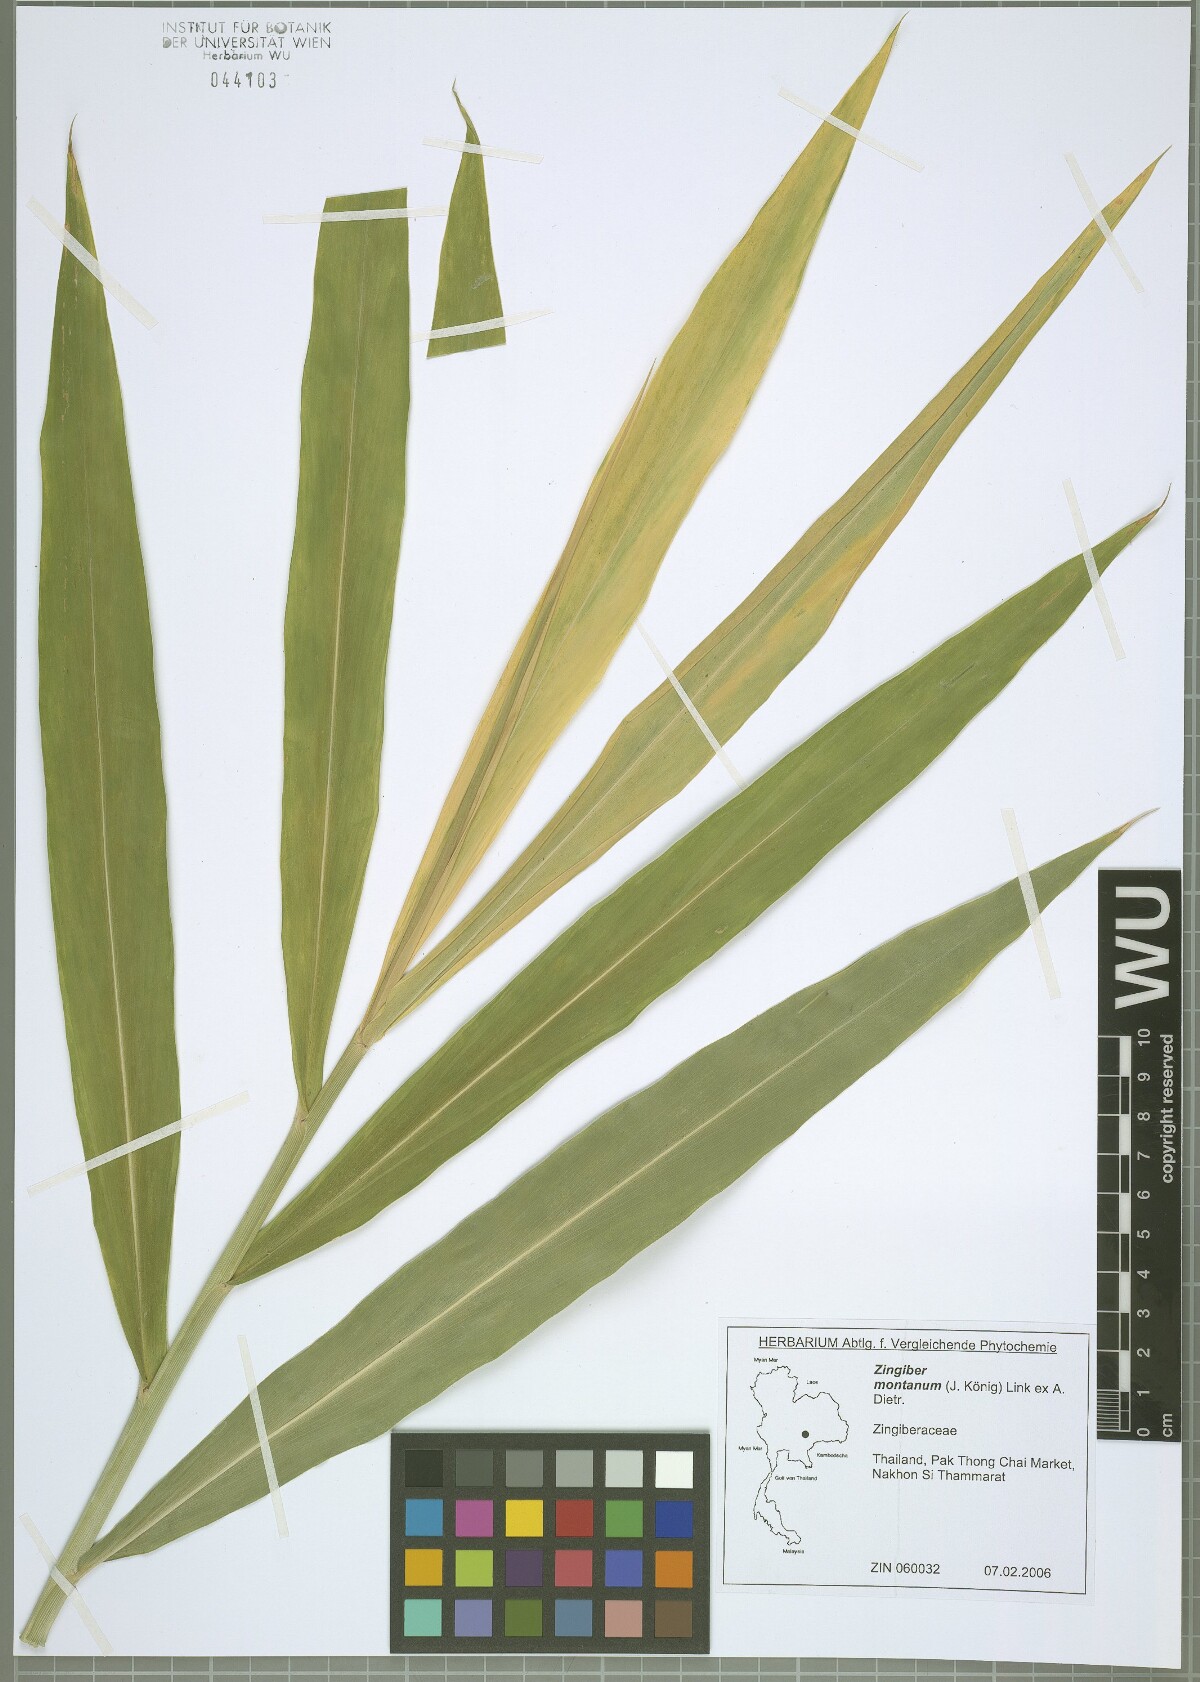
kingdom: Plantae
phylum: Tracheophyta
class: Liliopsida
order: Zingiberales
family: Zingiberaceae
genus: Zingiber
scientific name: Zingiber montanum
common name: Bengal ginger
